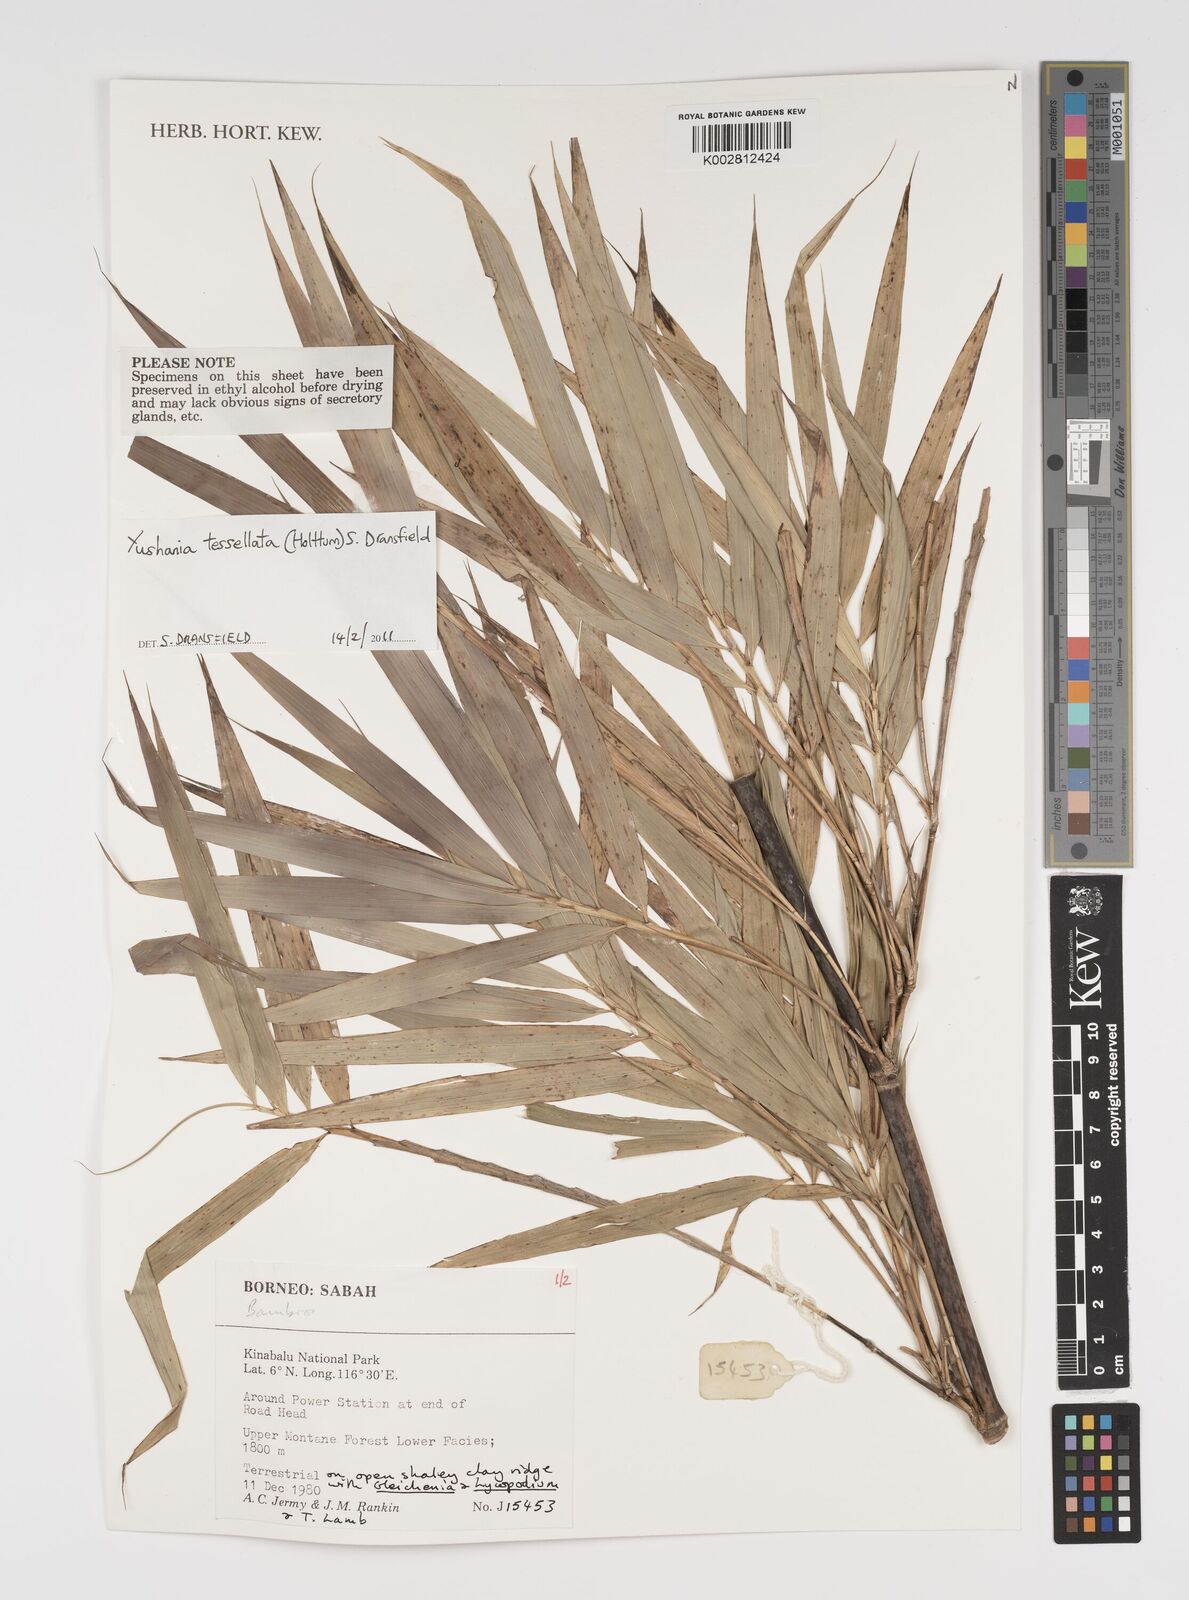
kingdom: Plantae
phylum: Tracheophyta
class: Liliopsida
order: Poales
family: Poaceae
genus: Yushania
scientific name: Yushania tessellata
